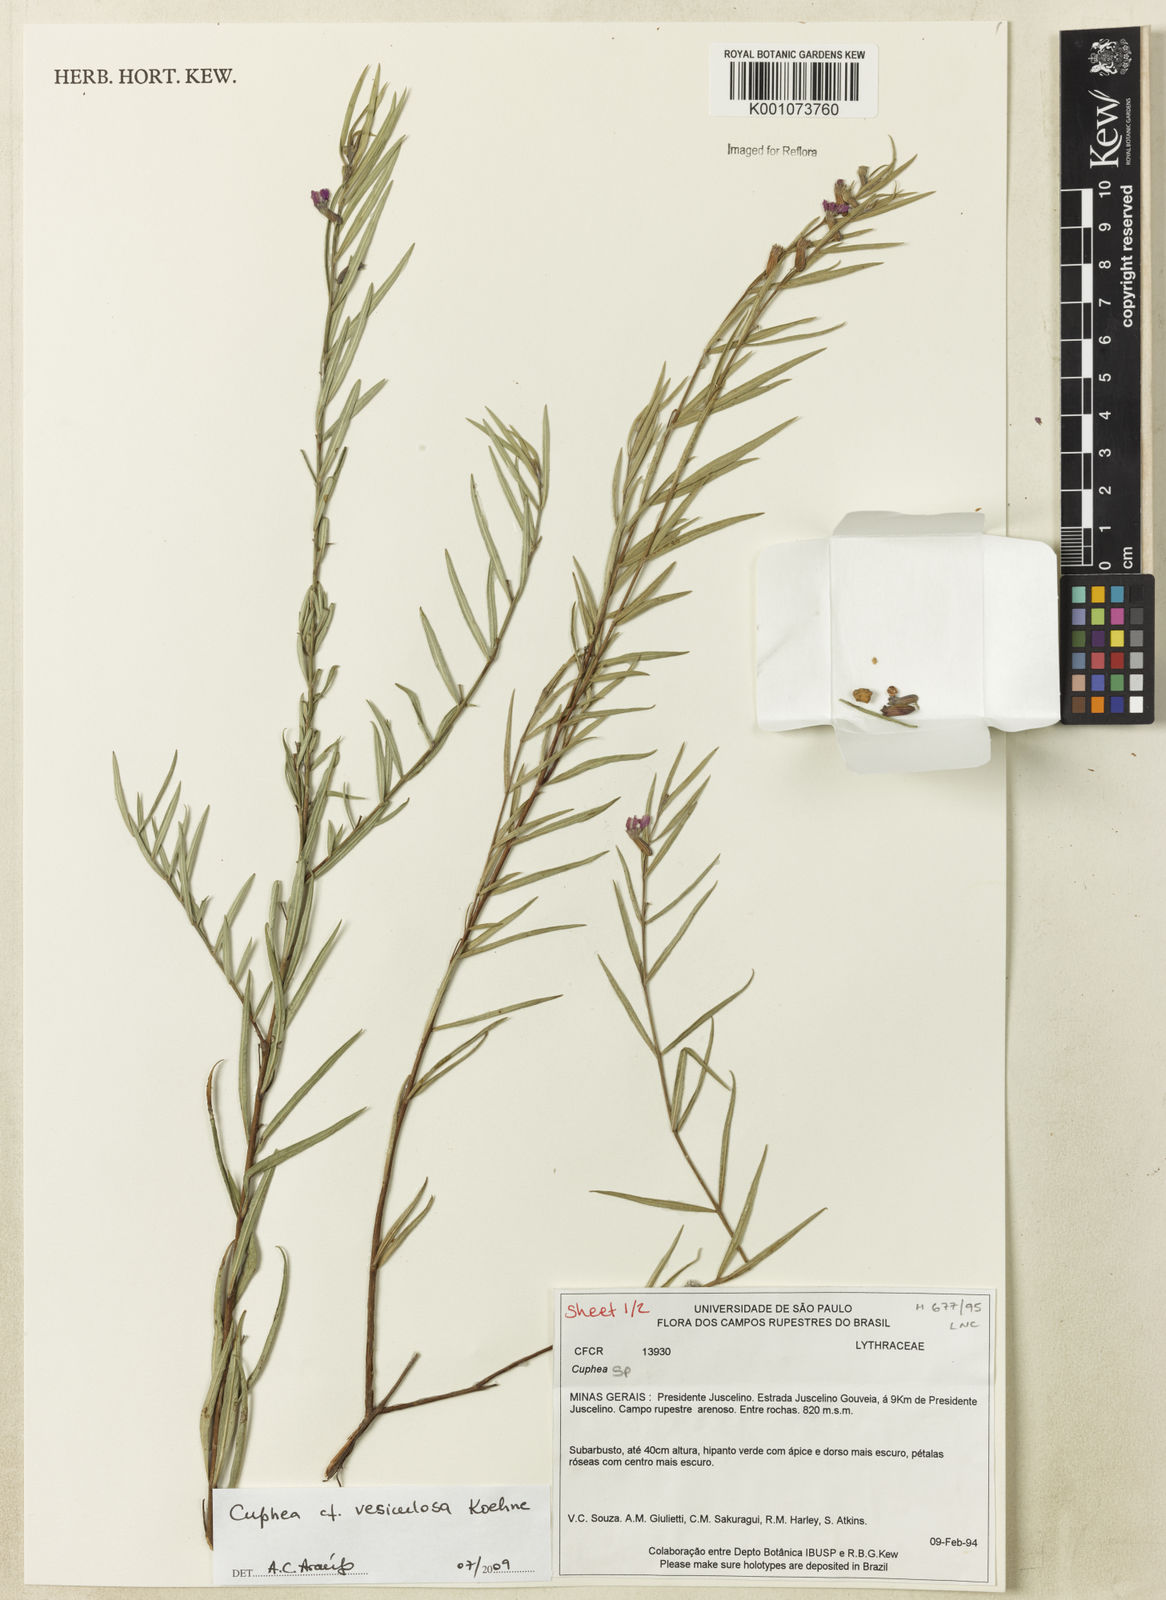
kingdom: Plantae
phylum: Tracheophyta
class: Magnoliopsida
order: Myrtales
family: Lythraceae
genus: Cuphea
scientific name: Cuphea vesiculosa
